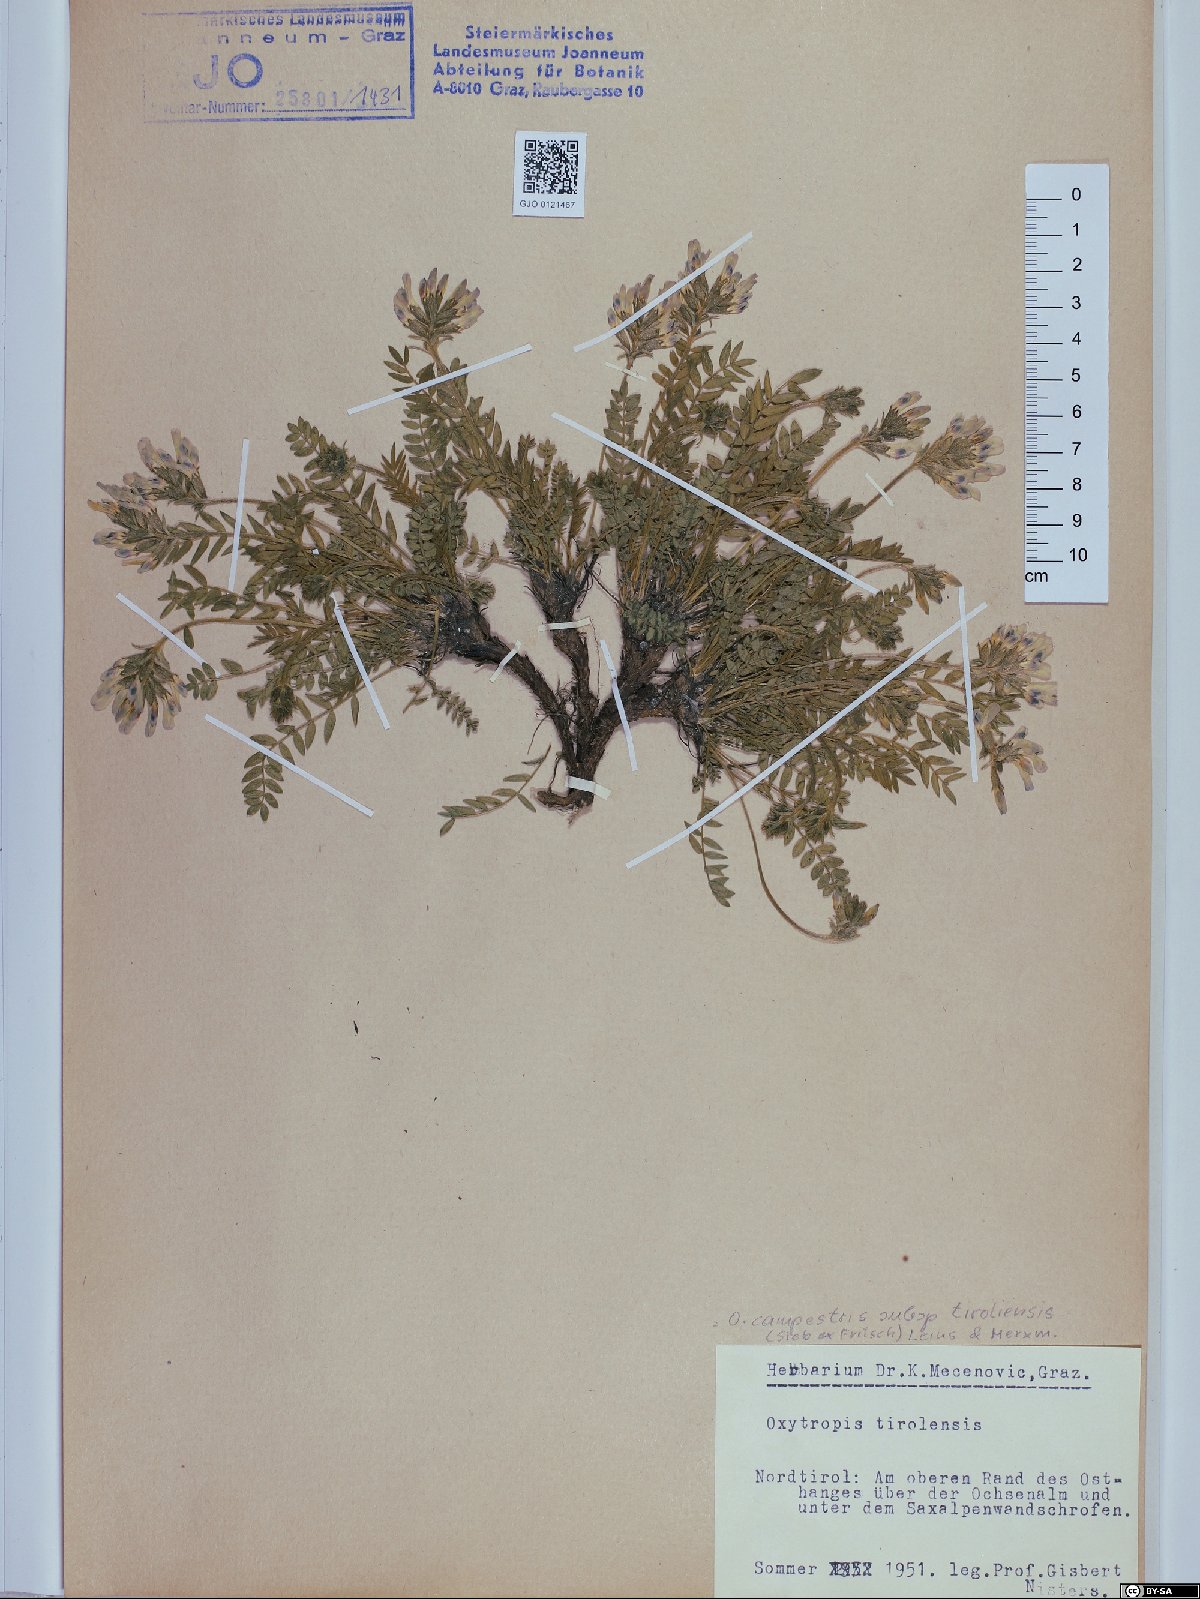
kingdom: Plantae
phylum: Tracheophyta
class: Magnoliopsida
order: Fabales
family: Fabaceae
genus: Oxytropis
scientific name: Oxytropis campestris
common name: Field locoweed
